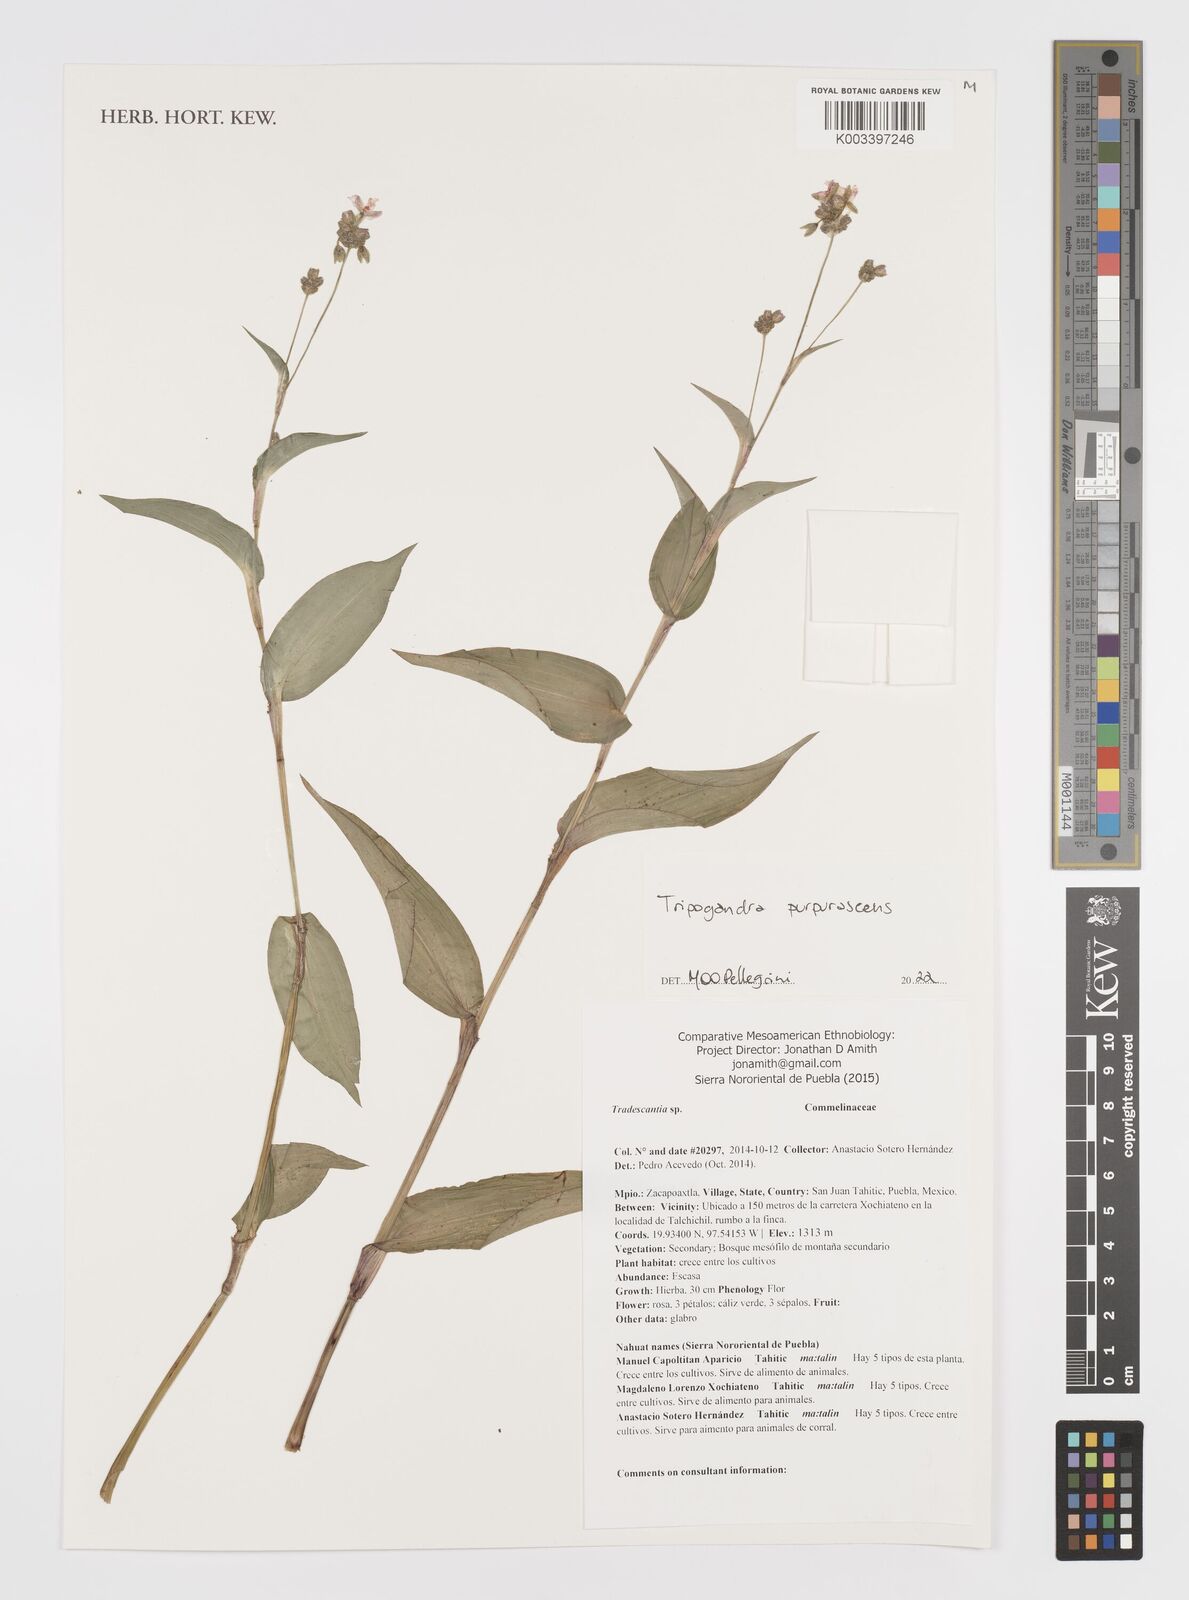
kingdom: Plantae
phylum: Tracheophyta
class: Liliopsida
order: Commelinales
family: Commelinaceae
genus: Callisia
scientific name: Callisia purpurascens
